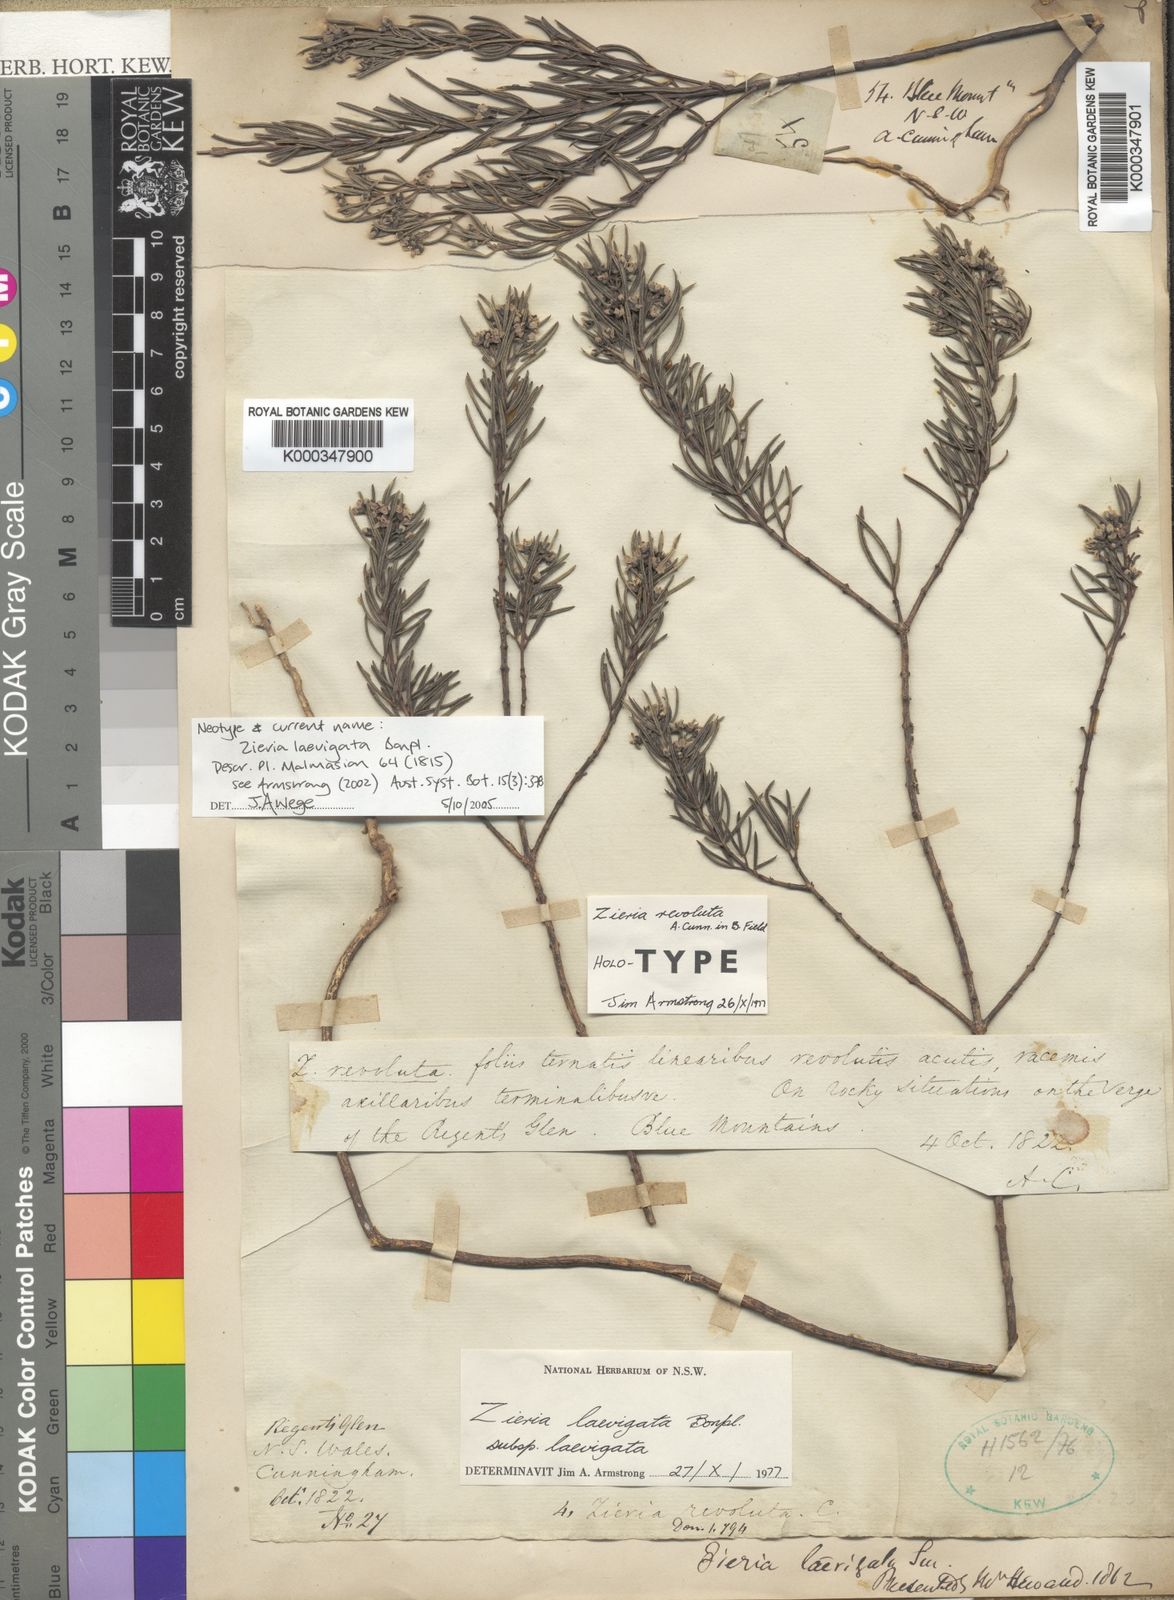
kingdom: Plantae
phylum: Tracheophyta
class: Magnoliopsida
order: Sapindales
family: Rutaceae
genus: Zieria
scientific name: Zieria laevigata
